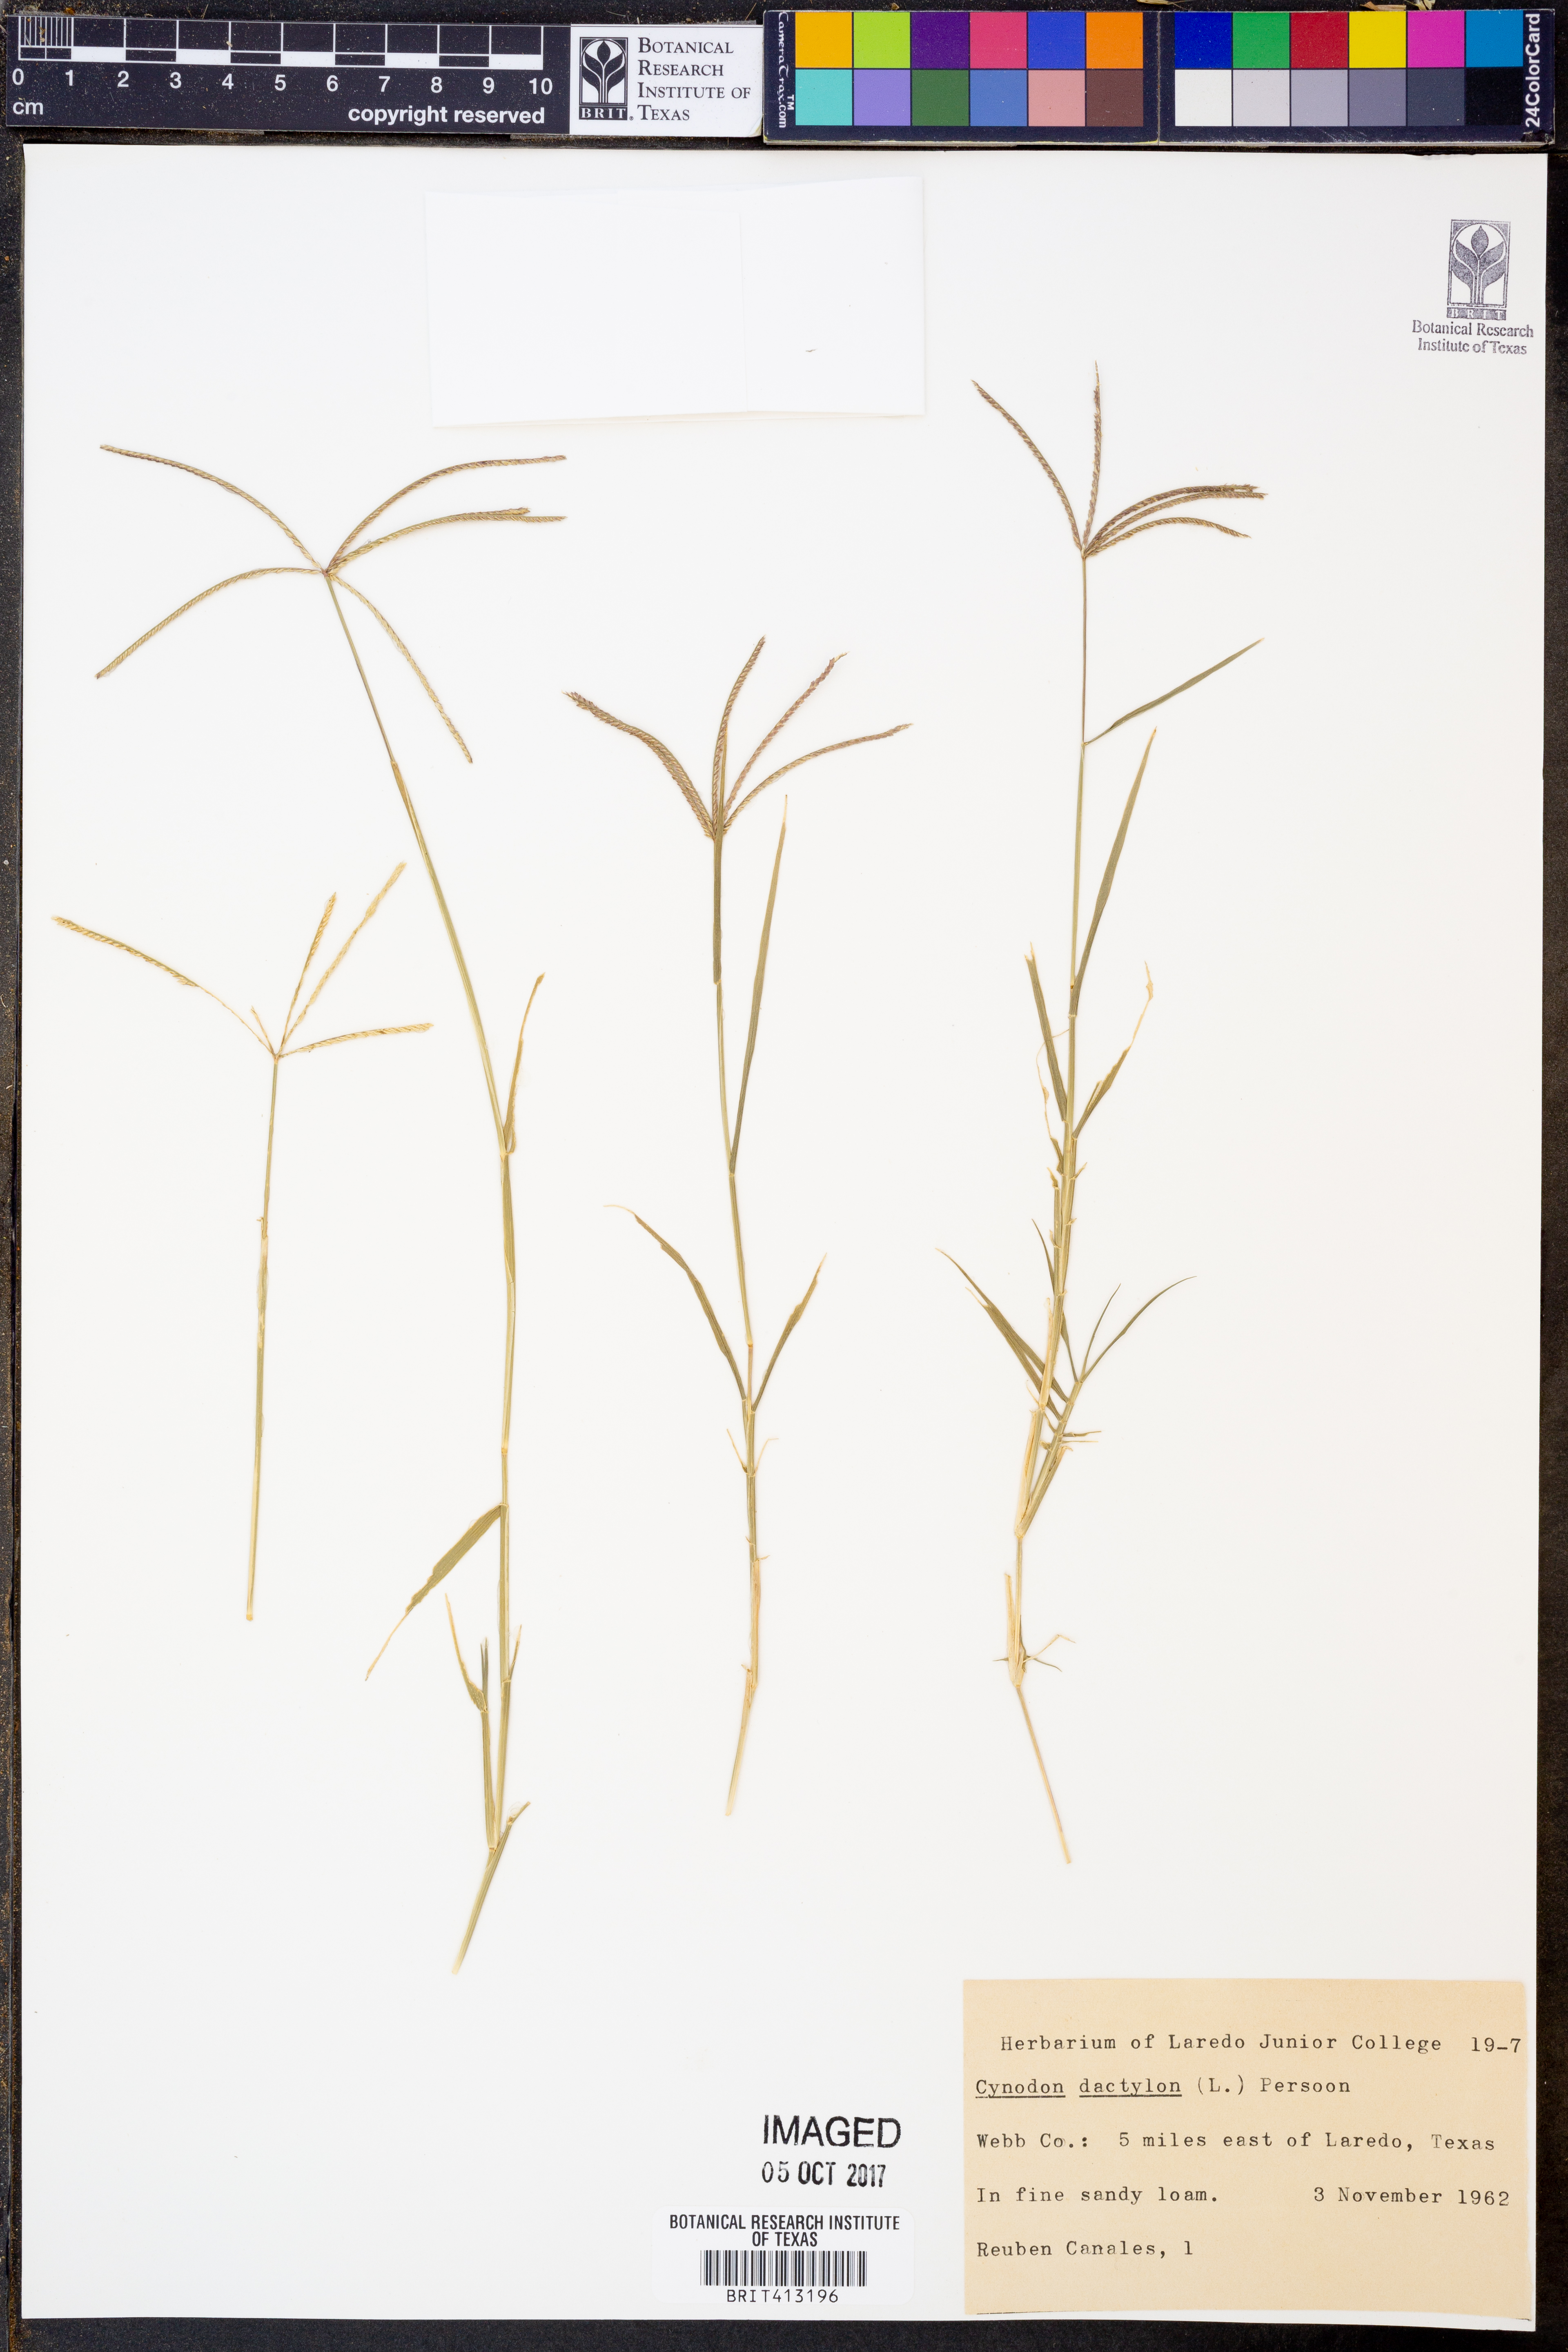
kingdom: Plantae
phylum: Tracheophyta
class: Liliopsida
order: Poales
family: Poaceae
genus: Cynodon
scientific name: Cynodon dactylon
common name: Bermuda grass
